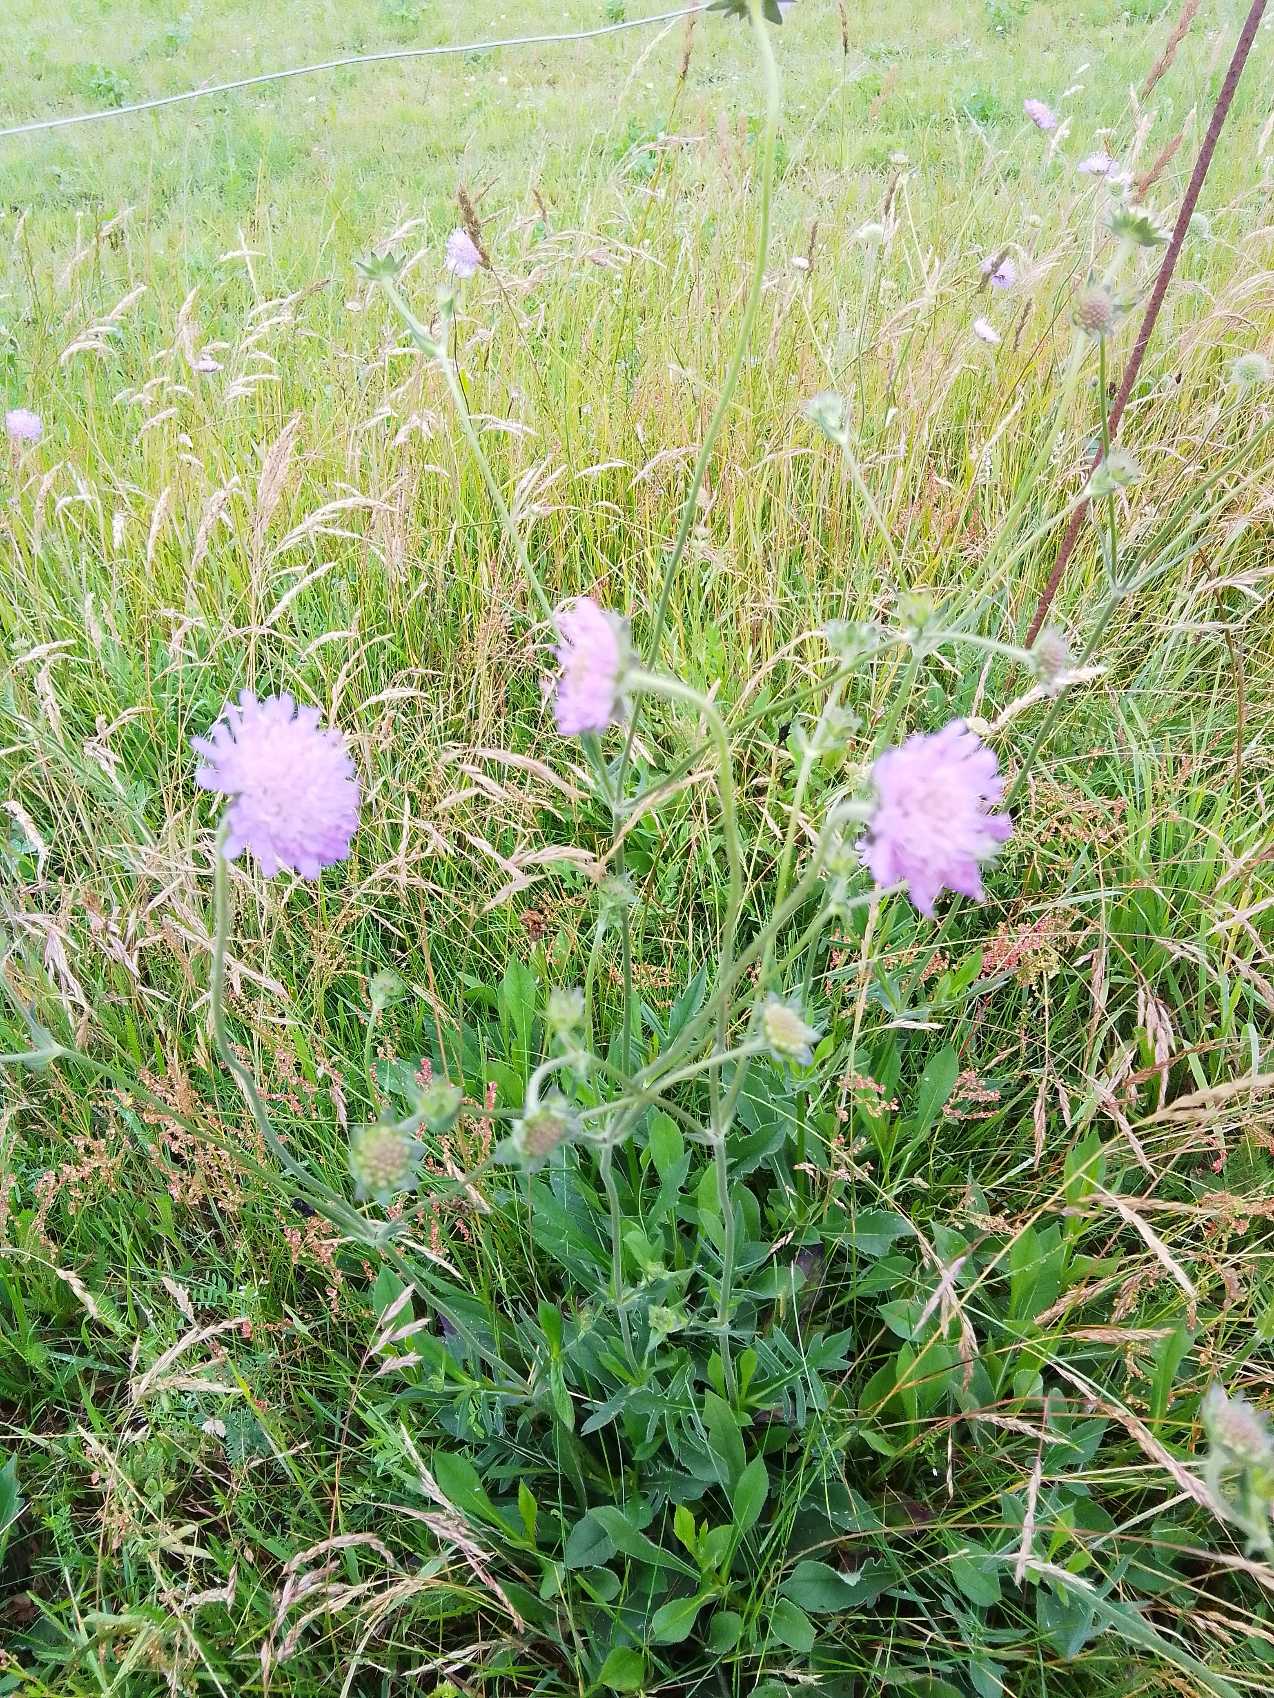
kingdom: Plantae
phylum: Tracheophyta
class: Magnoliopsida
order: Dipsacales
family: Caprifoliaceae
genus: Knautia
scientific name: Knautia arvensis
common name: Blåhat
